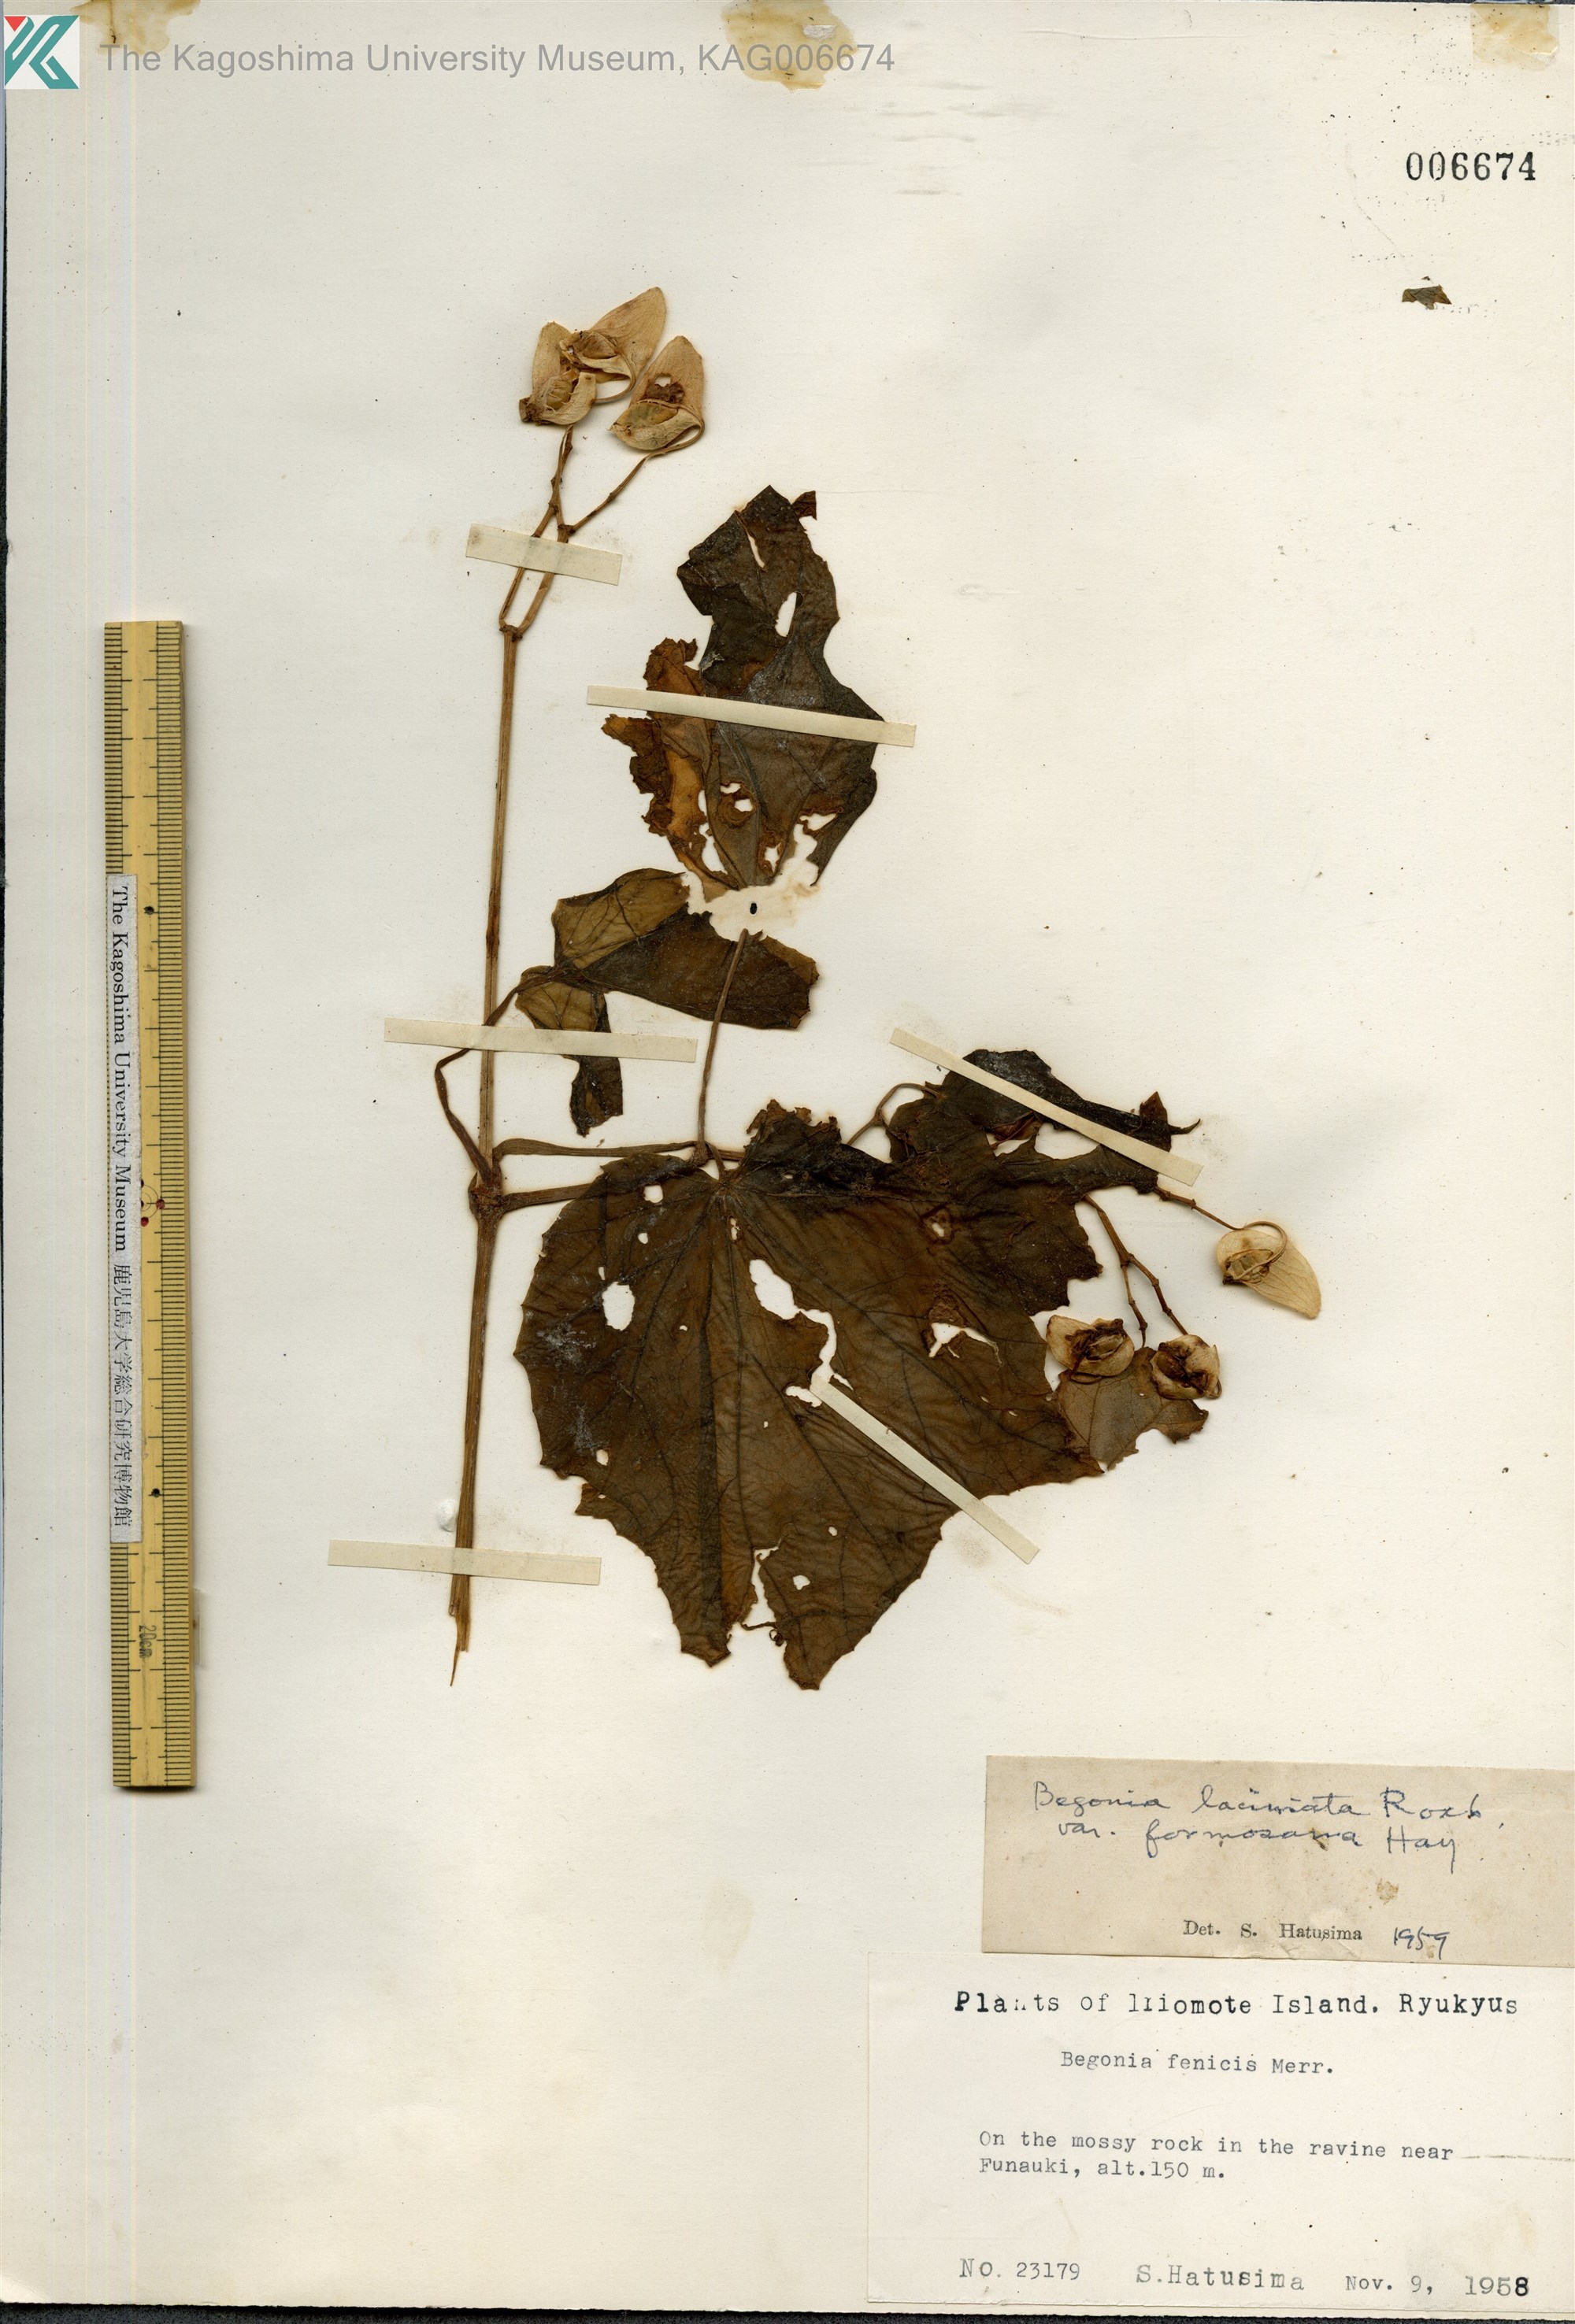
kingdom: Plantae
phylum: Tracheophyta
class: Magnoliopsida
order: Cucurbitales
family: Begoniaceae
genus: Begonia
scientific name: Begonia palmata
